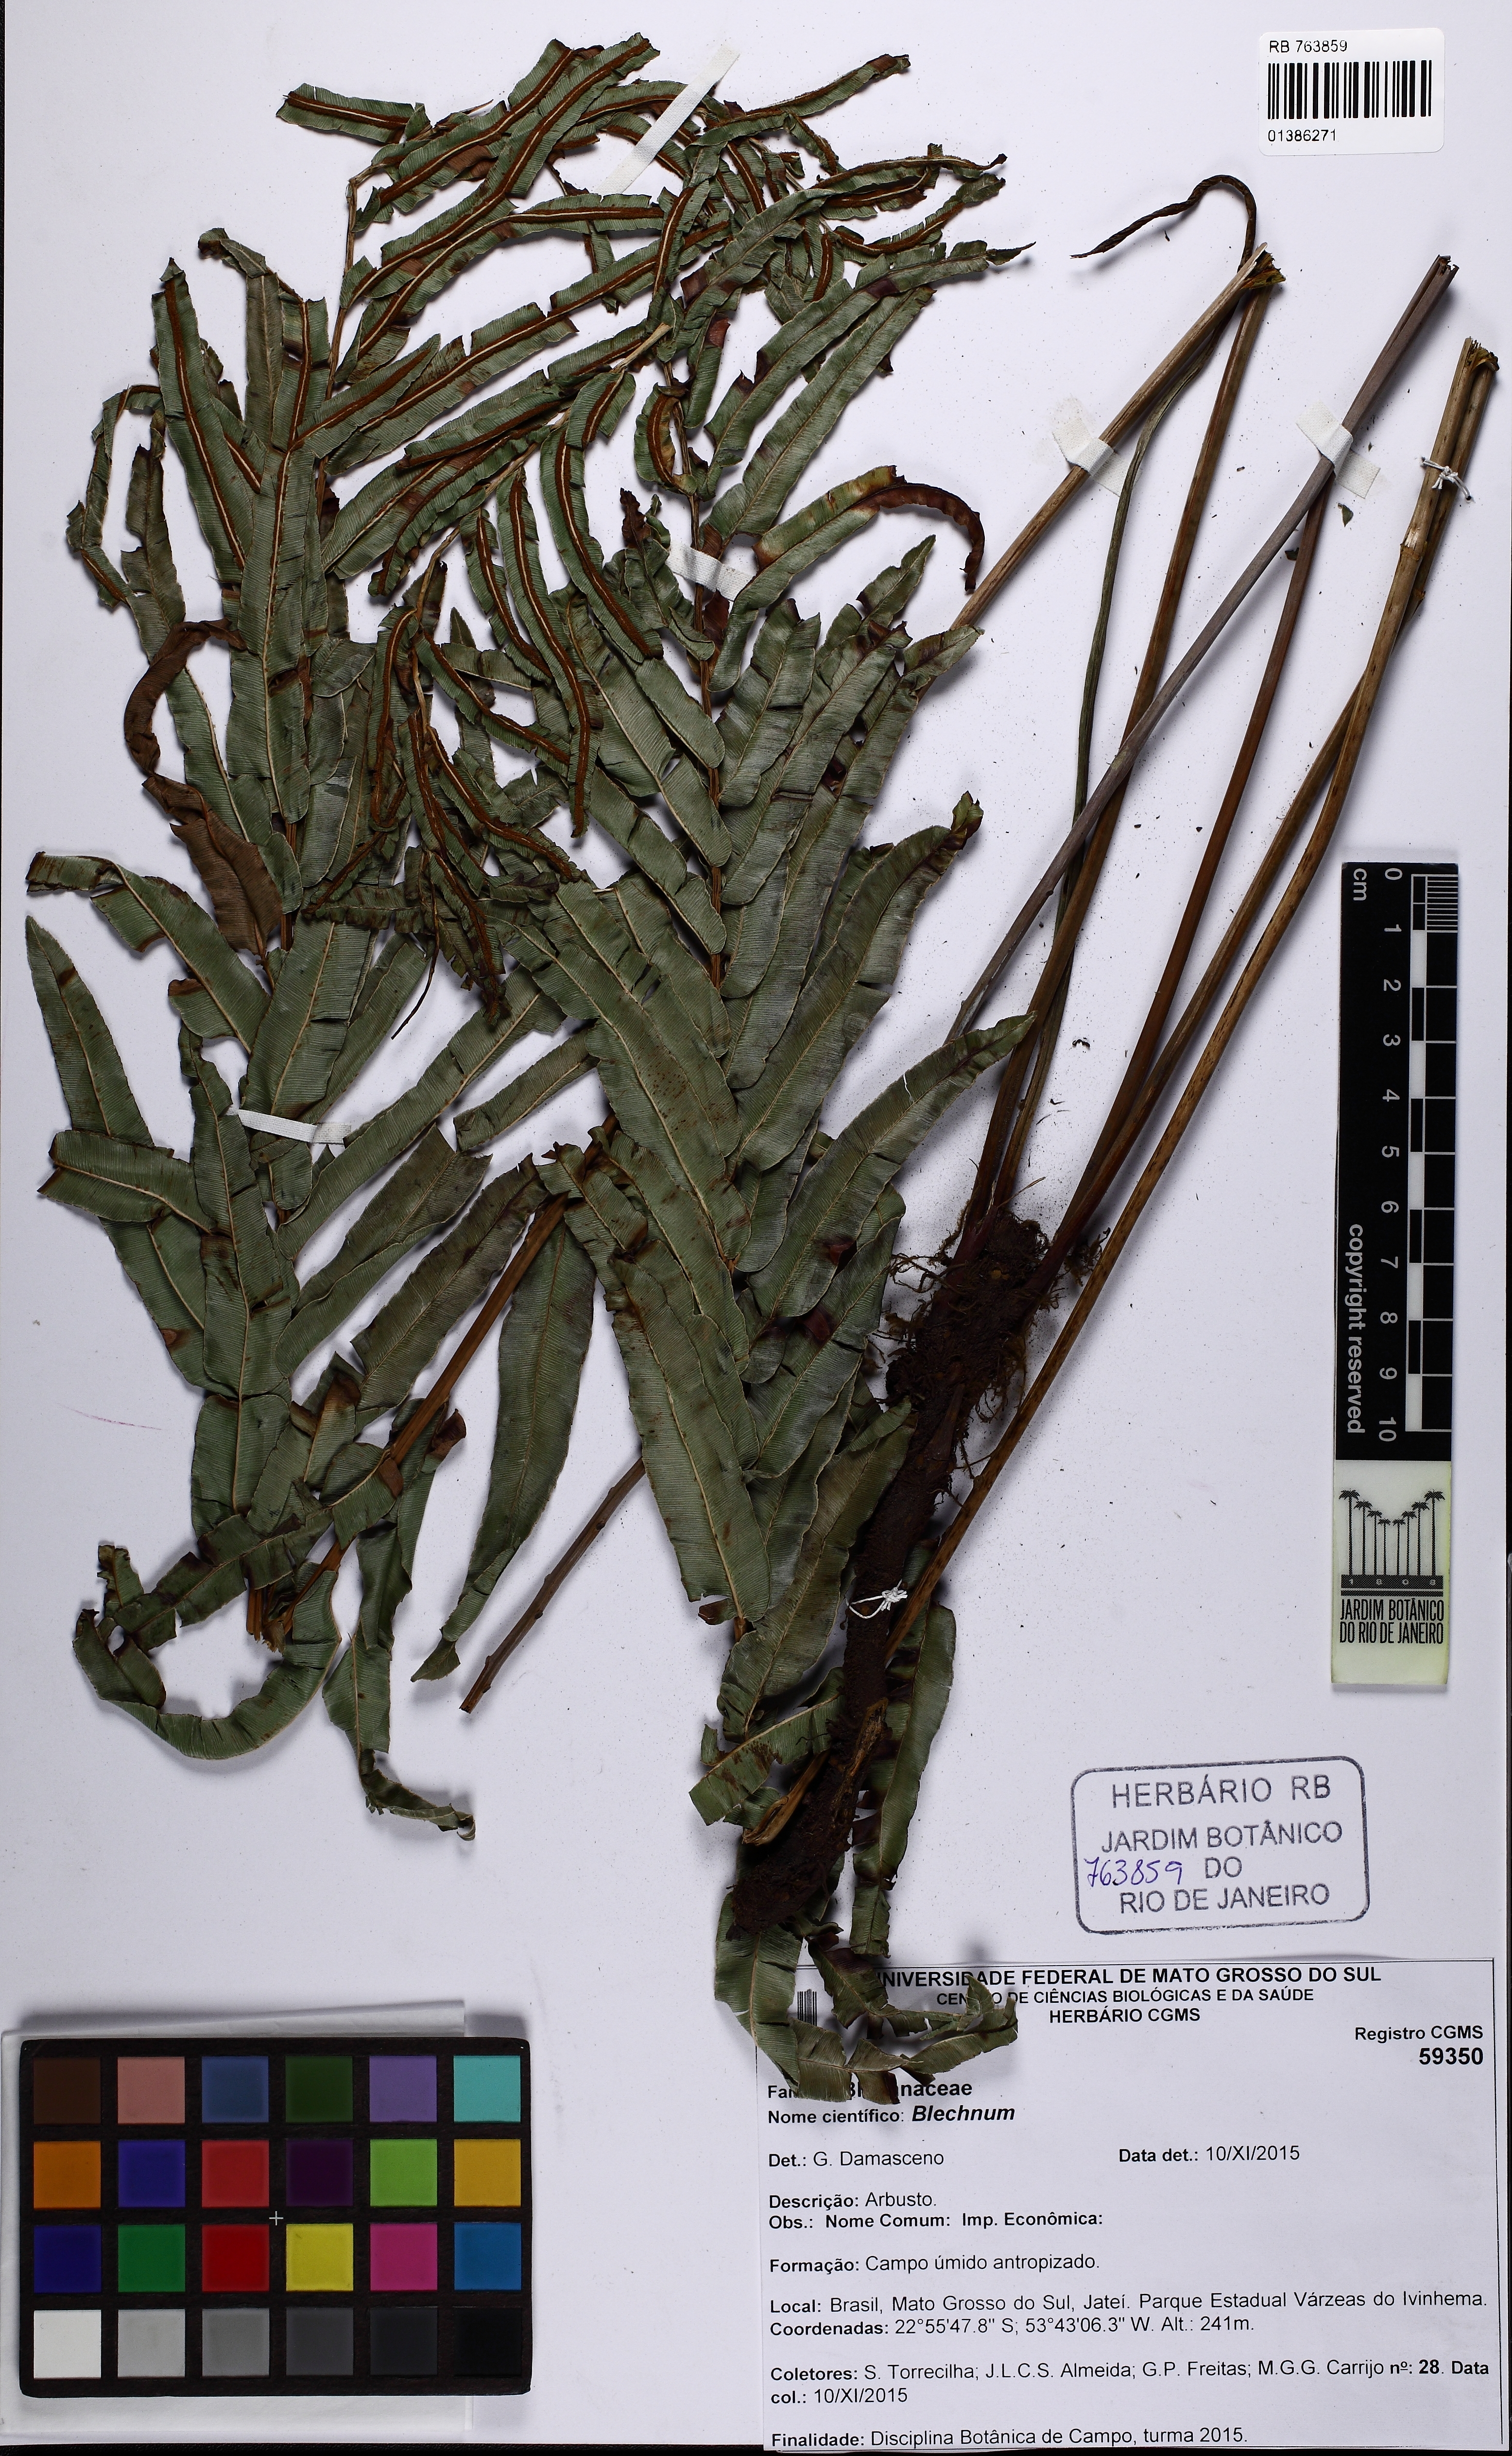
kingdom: Plantae
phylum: Tracheophyta
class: Polypodiopsida
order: Polypodiales
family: Blechnaceae
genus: Telmatoblechnum
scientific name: Telmatoblechnum serrulatum
